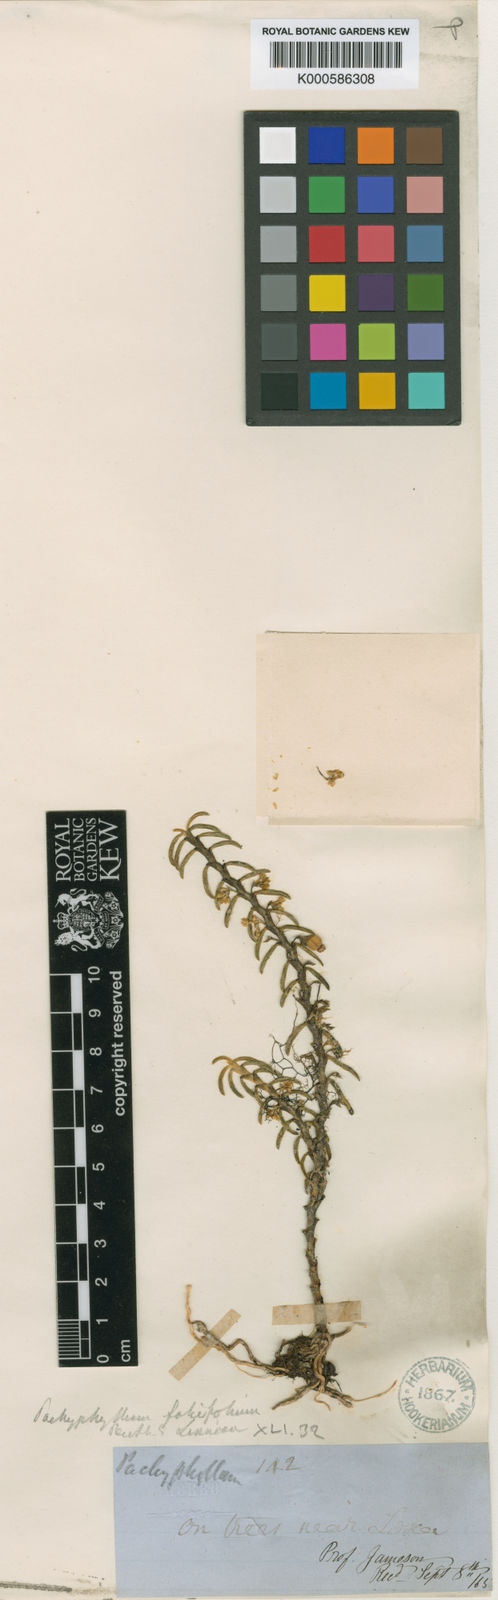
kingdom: Plantae
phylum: Tracheophyta
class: Liliopsida
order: Asparagales
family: Orchidaceae
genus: Fernandezia
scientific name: Fernandezia falcifolia
